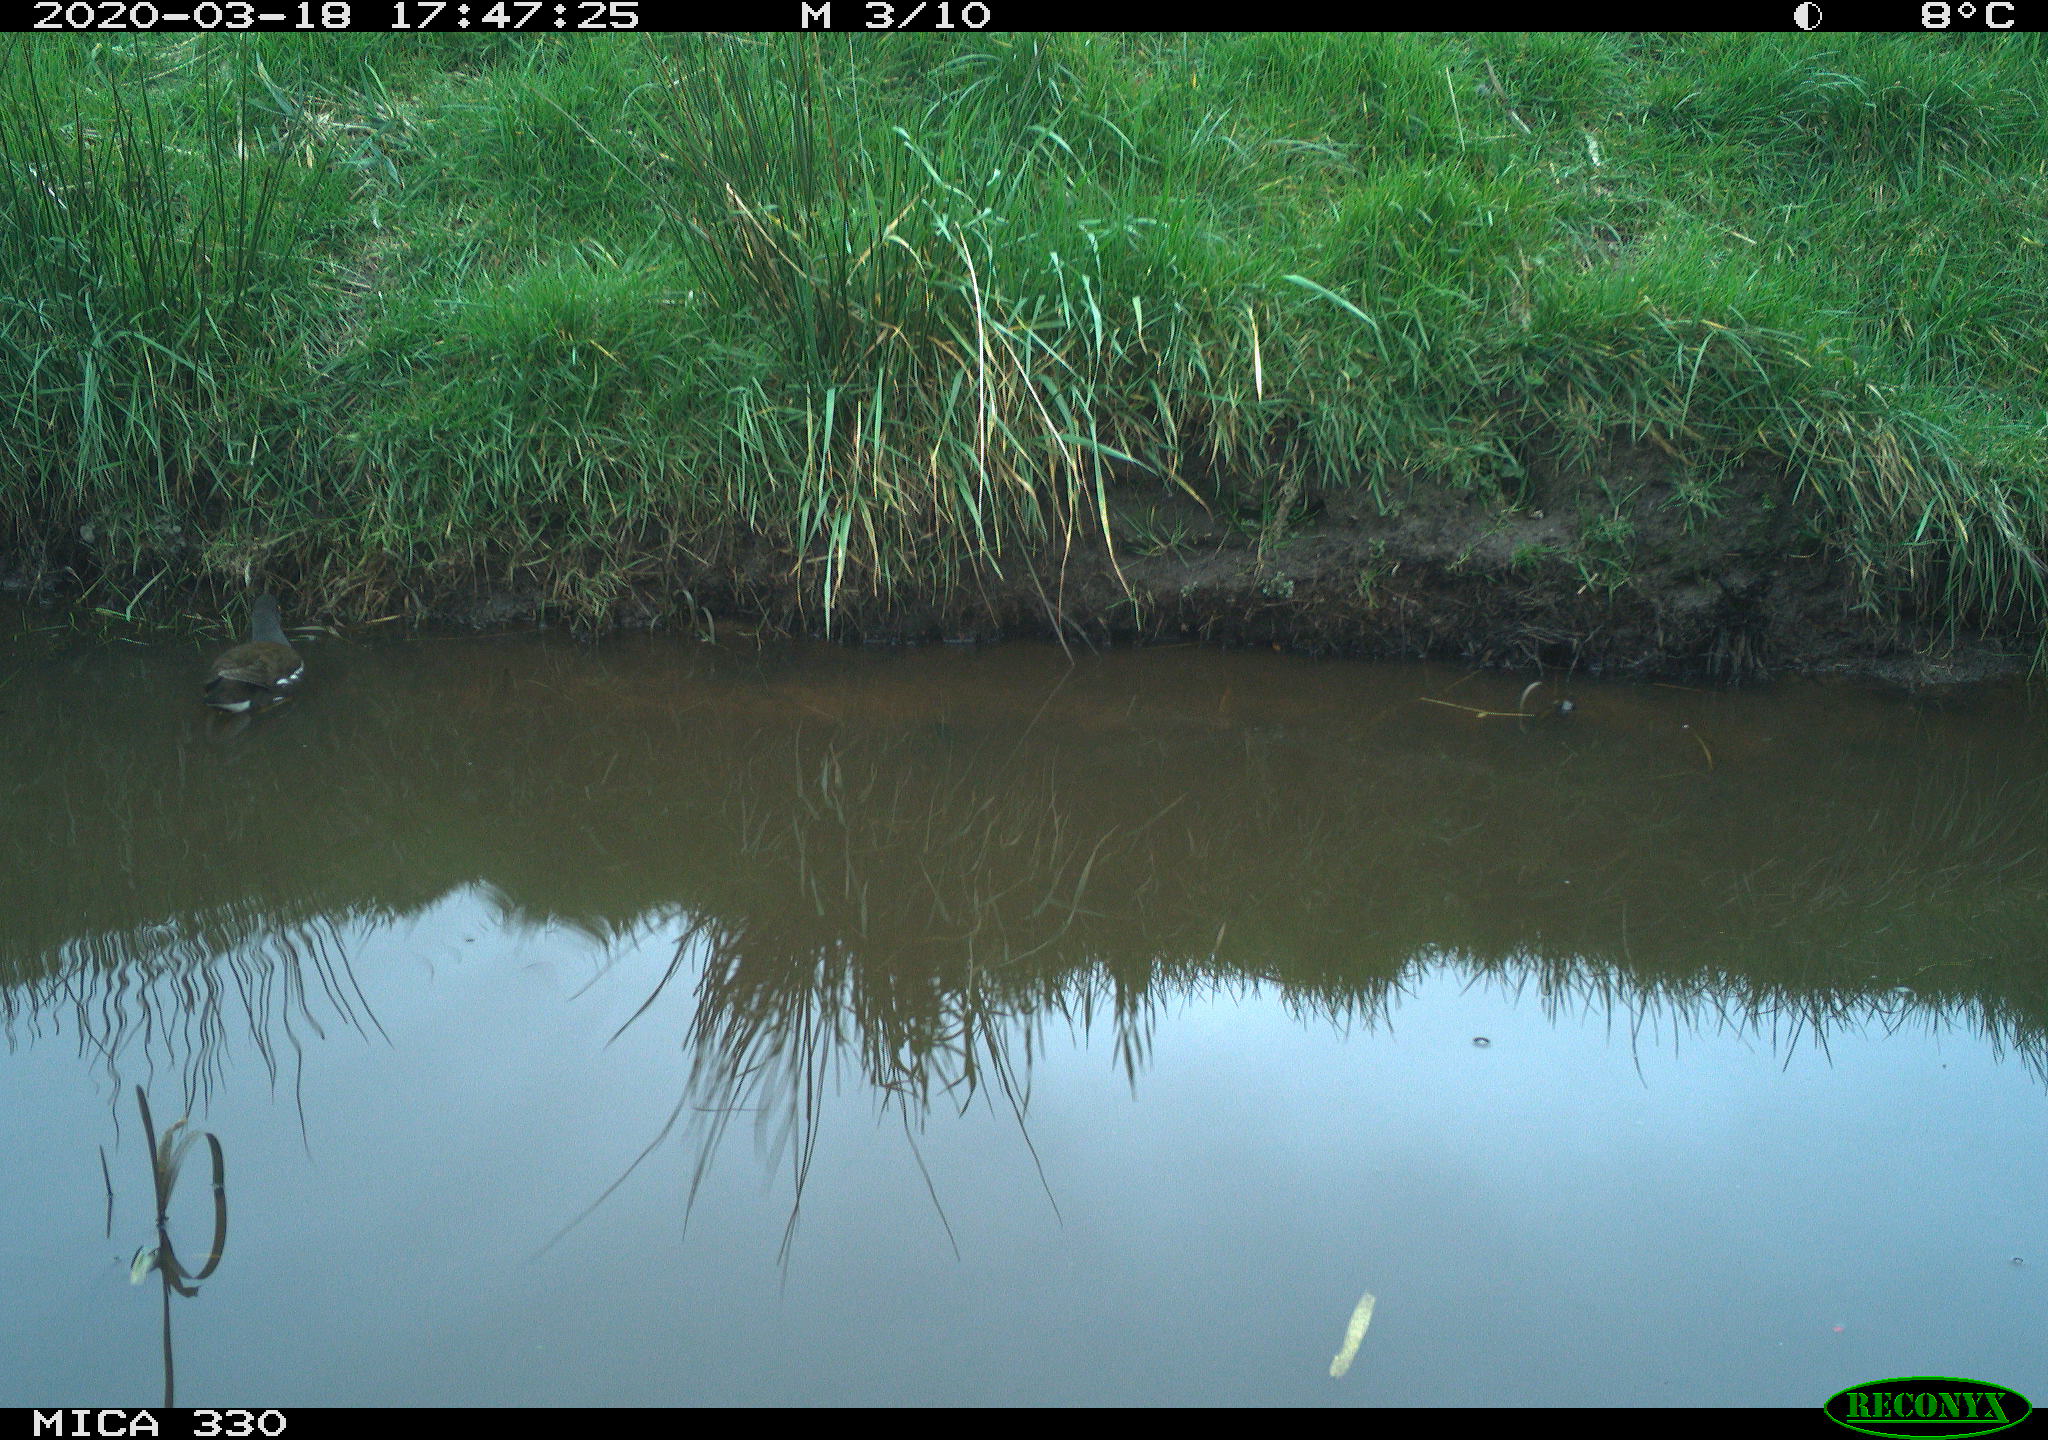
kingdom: Animalia
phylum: Chordata
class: Aves
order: Gruiformes
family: Rallidae
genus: Gallinula
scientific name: Gallinula chloropus
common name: Common moorhen
